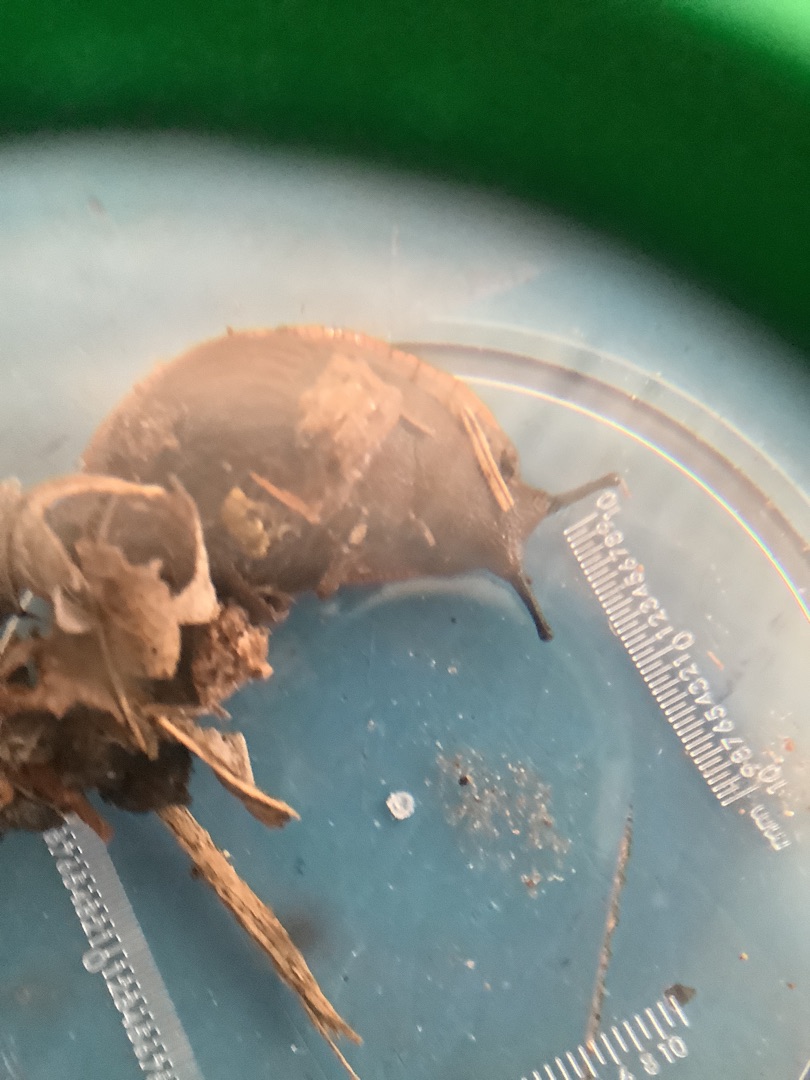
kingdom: Animalia
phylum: Mollusca
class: Gastropoda
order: Stylommatophora
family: Arionidae
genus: Arion
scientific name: Arion
